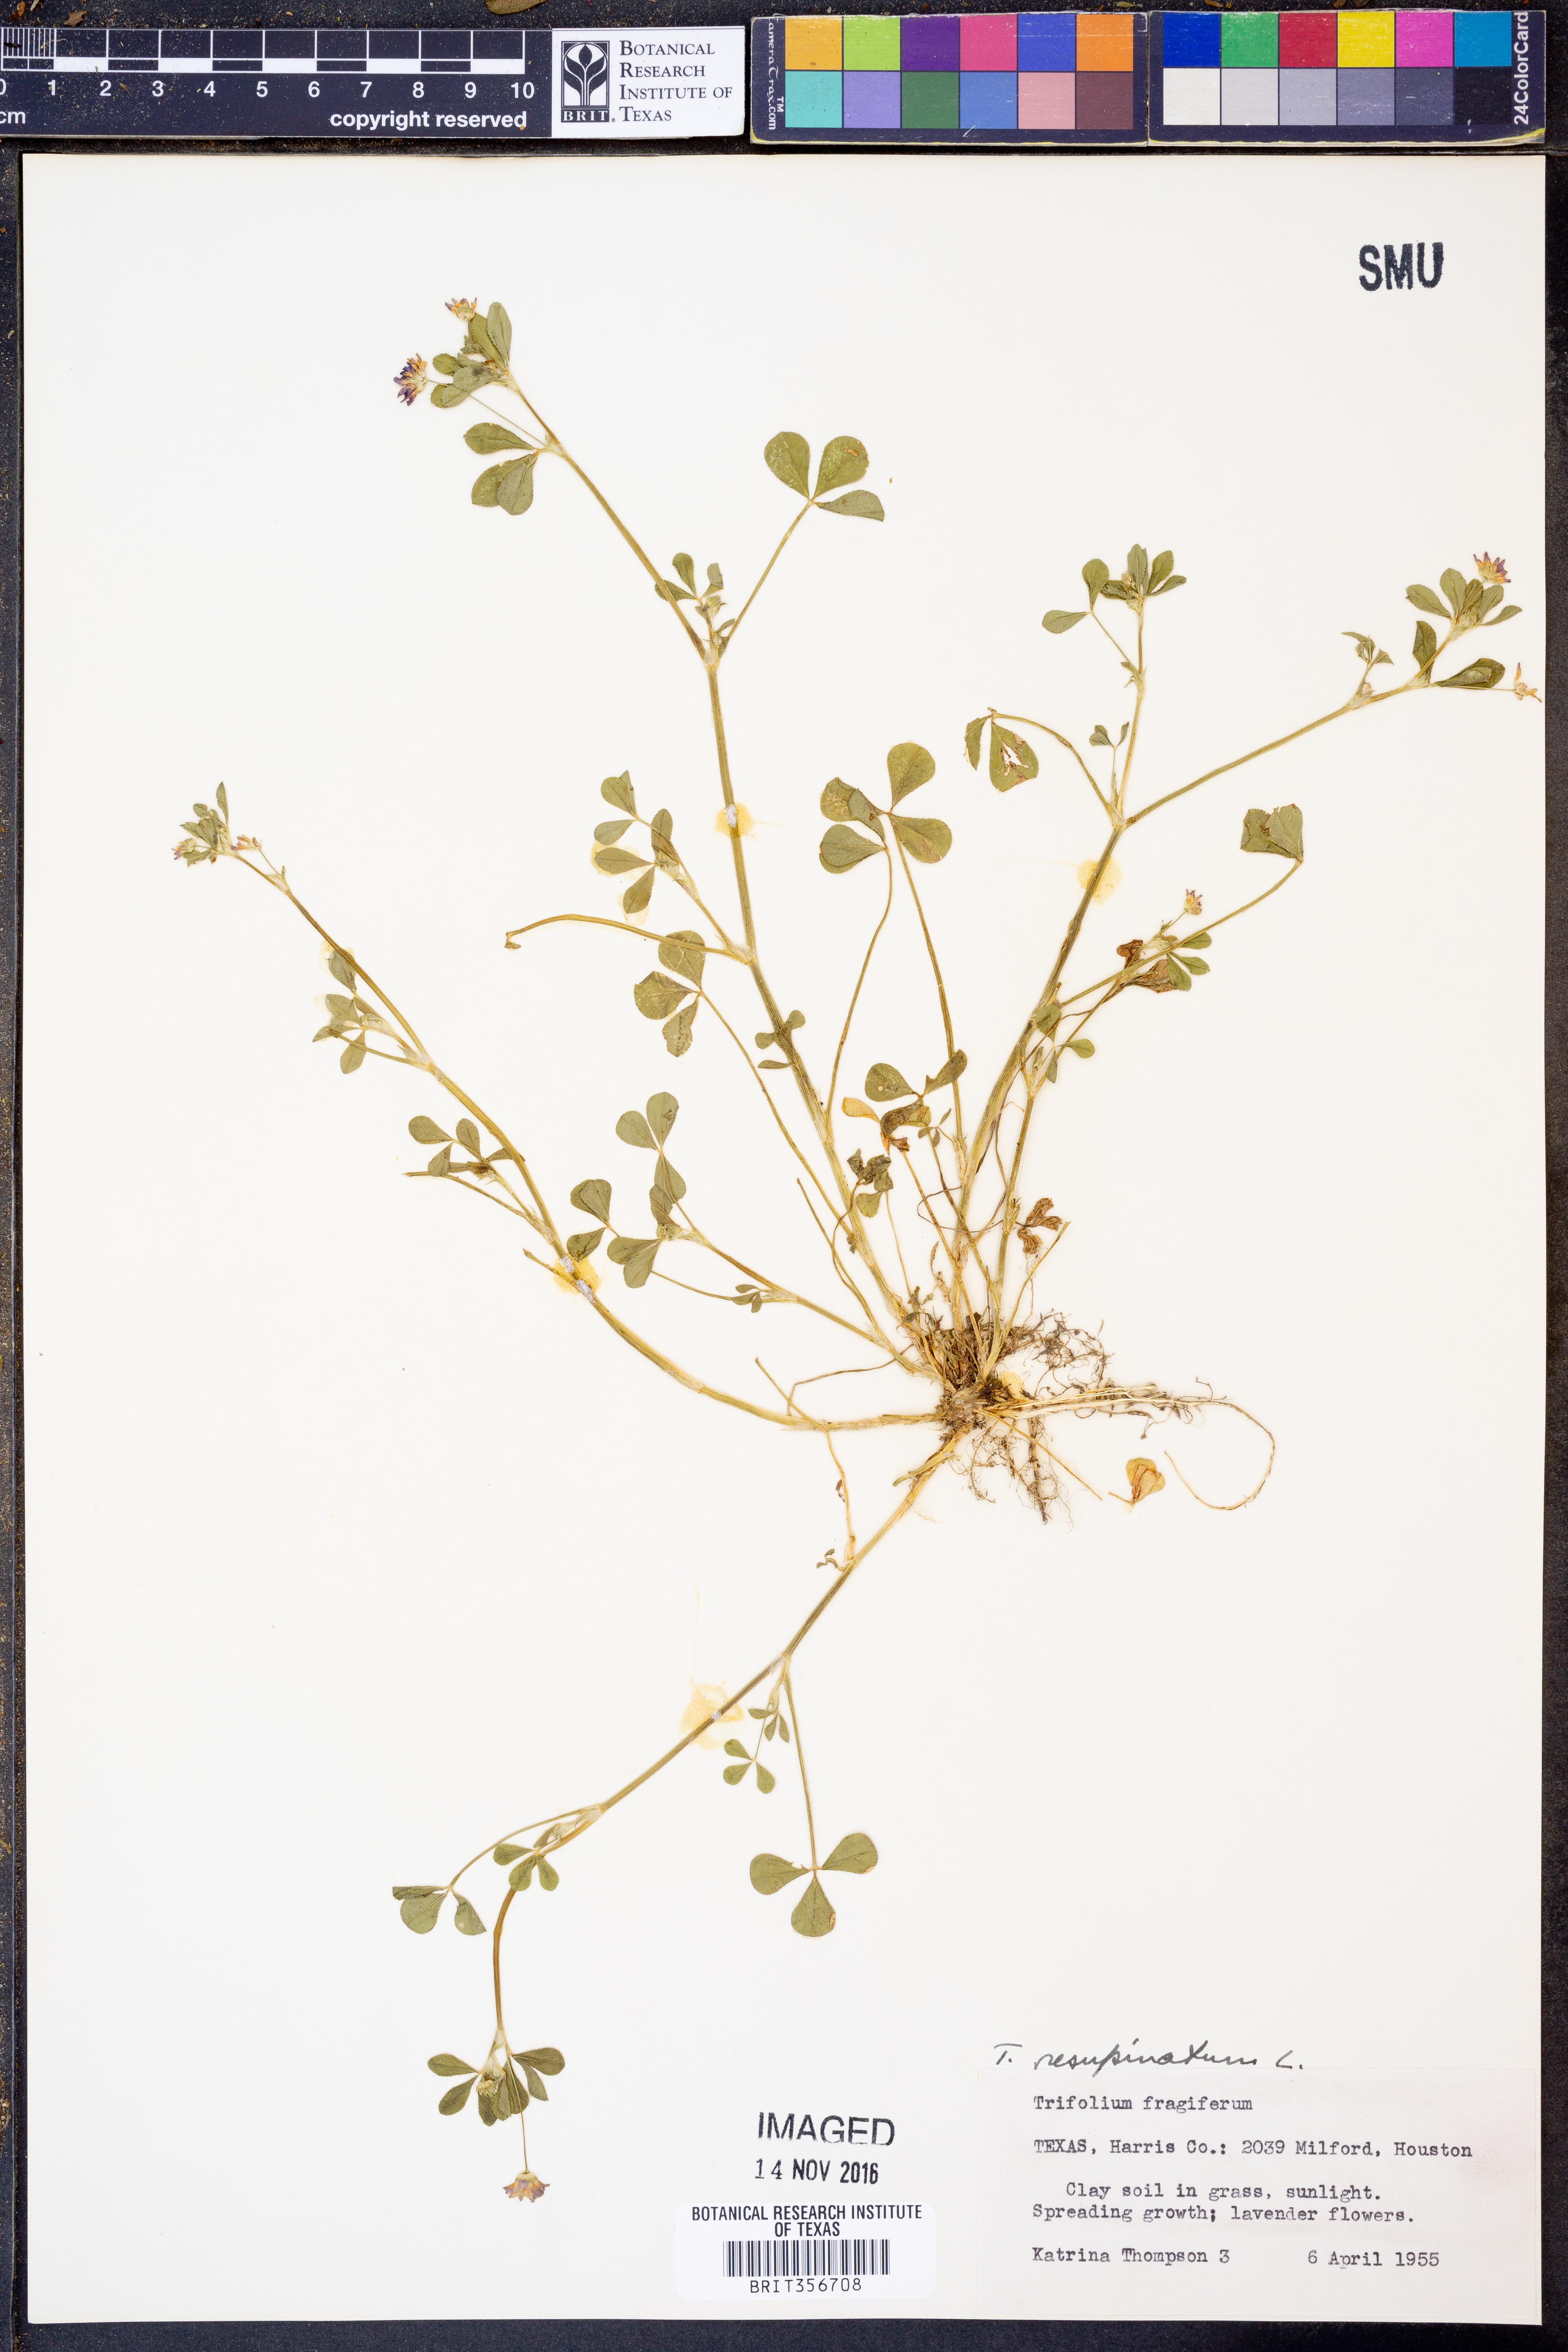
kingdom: Plantae
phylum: Tracheophyta
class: Magnoliopsida
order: Fabales
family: Fabaceae
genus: Trifolium
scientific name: Trifolium resupinatum
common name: Reversed clover
